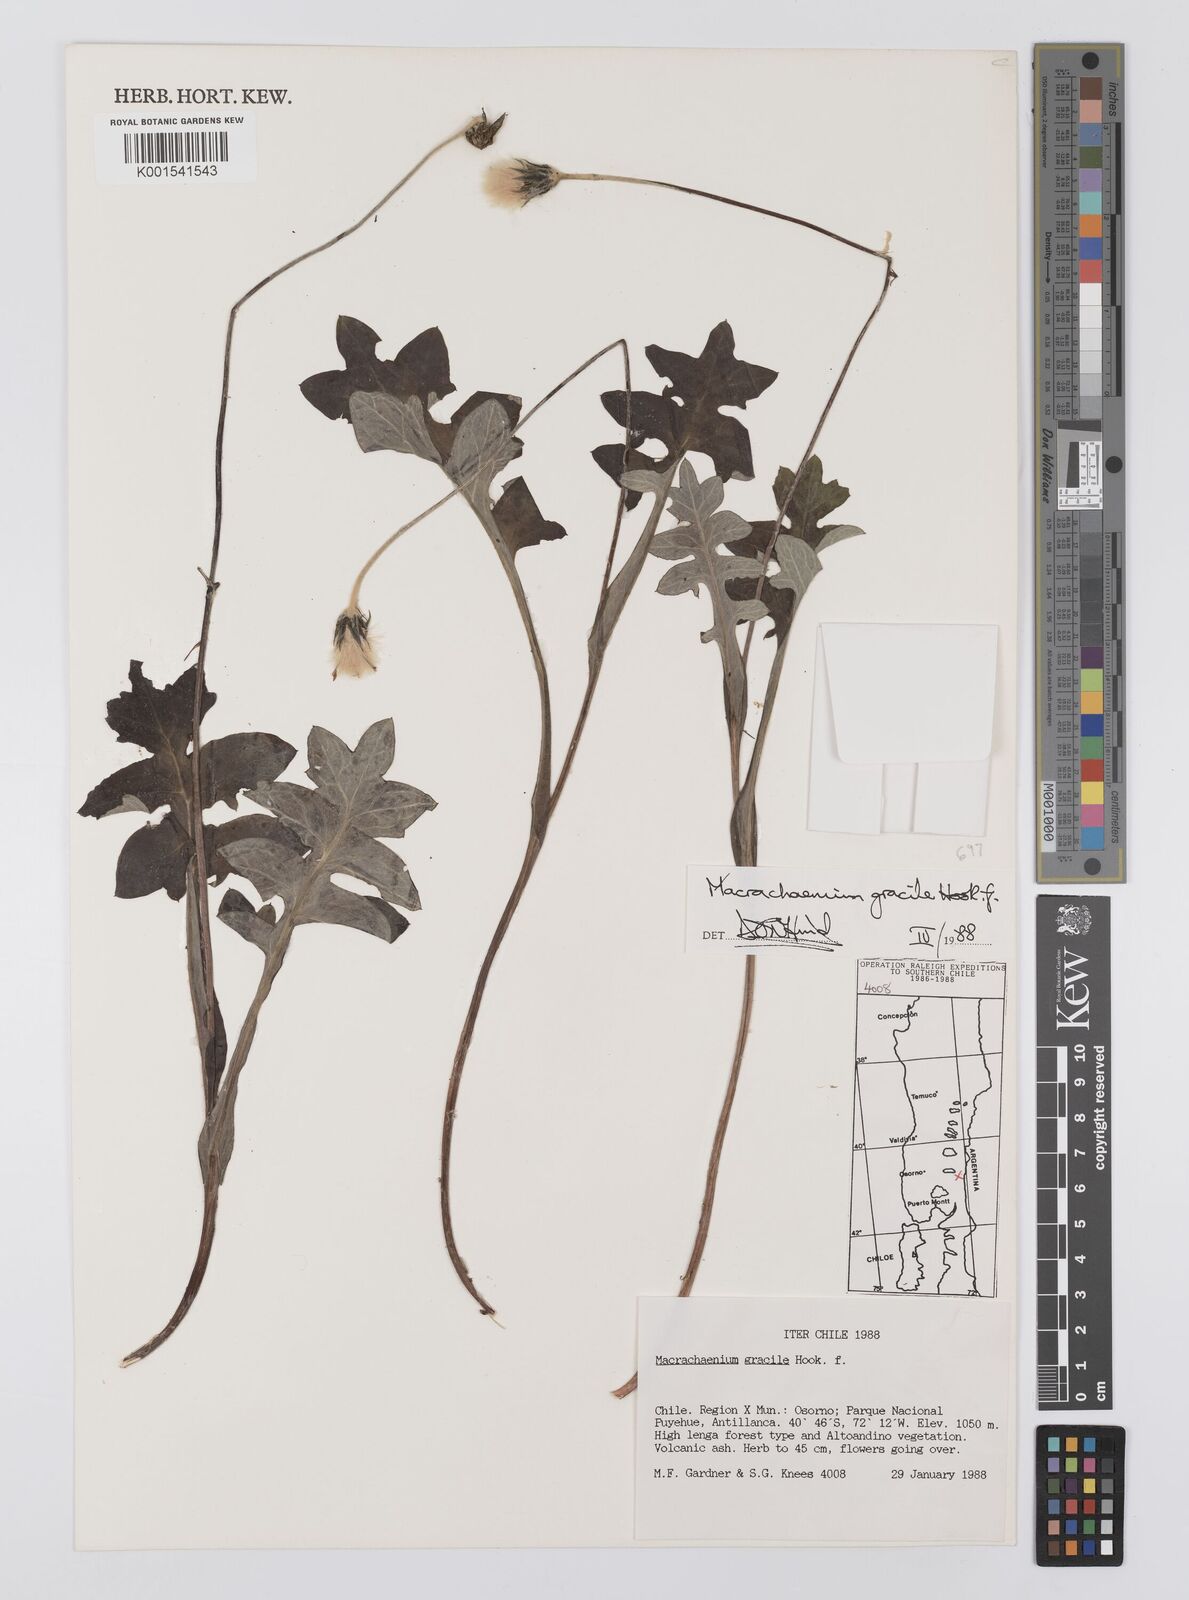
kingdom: Plantae
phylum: Tracheophyta
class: Magnoliopsida
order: Asterales
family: Asteraceae
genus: Macrachaenium
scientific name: Macrachaenium gracile
